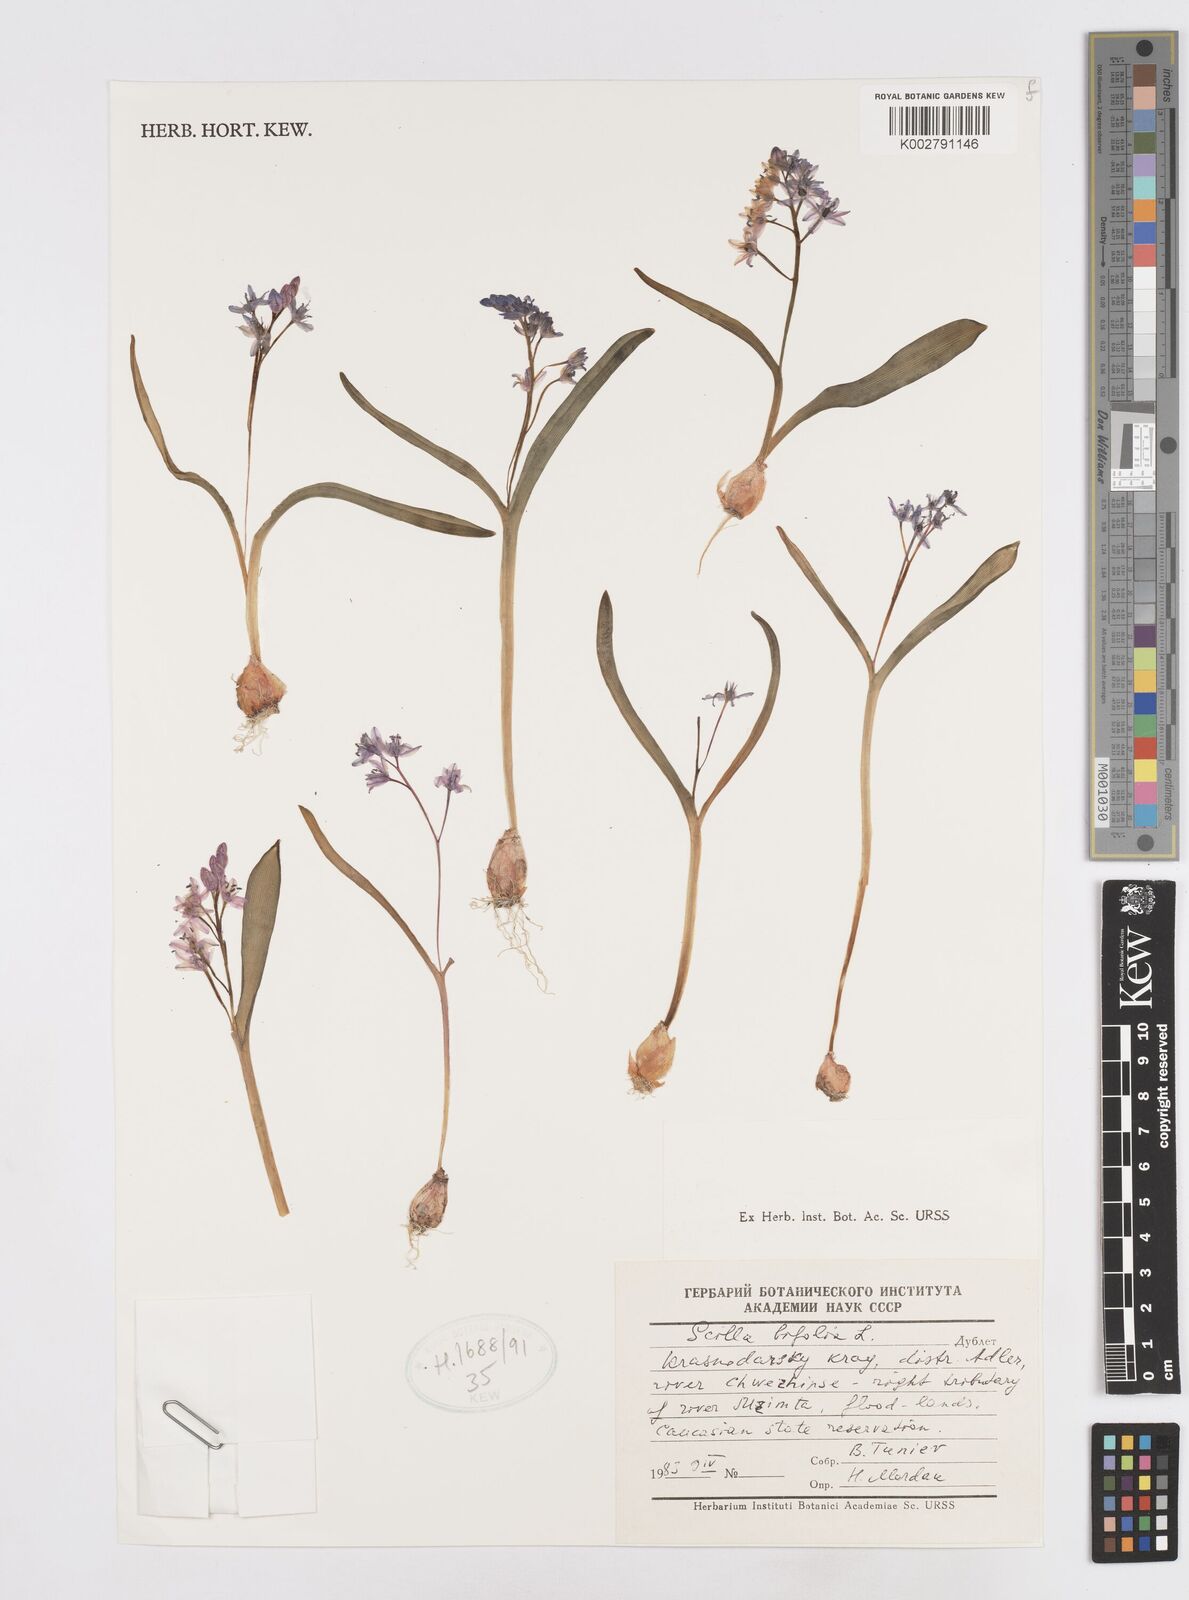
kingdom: Plantae
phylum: Tracheophyta
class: Liliopsida
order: Asparagales
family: Asparagaceae
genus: Scilla
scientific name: Scilla bifolia
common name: Alpine squill
